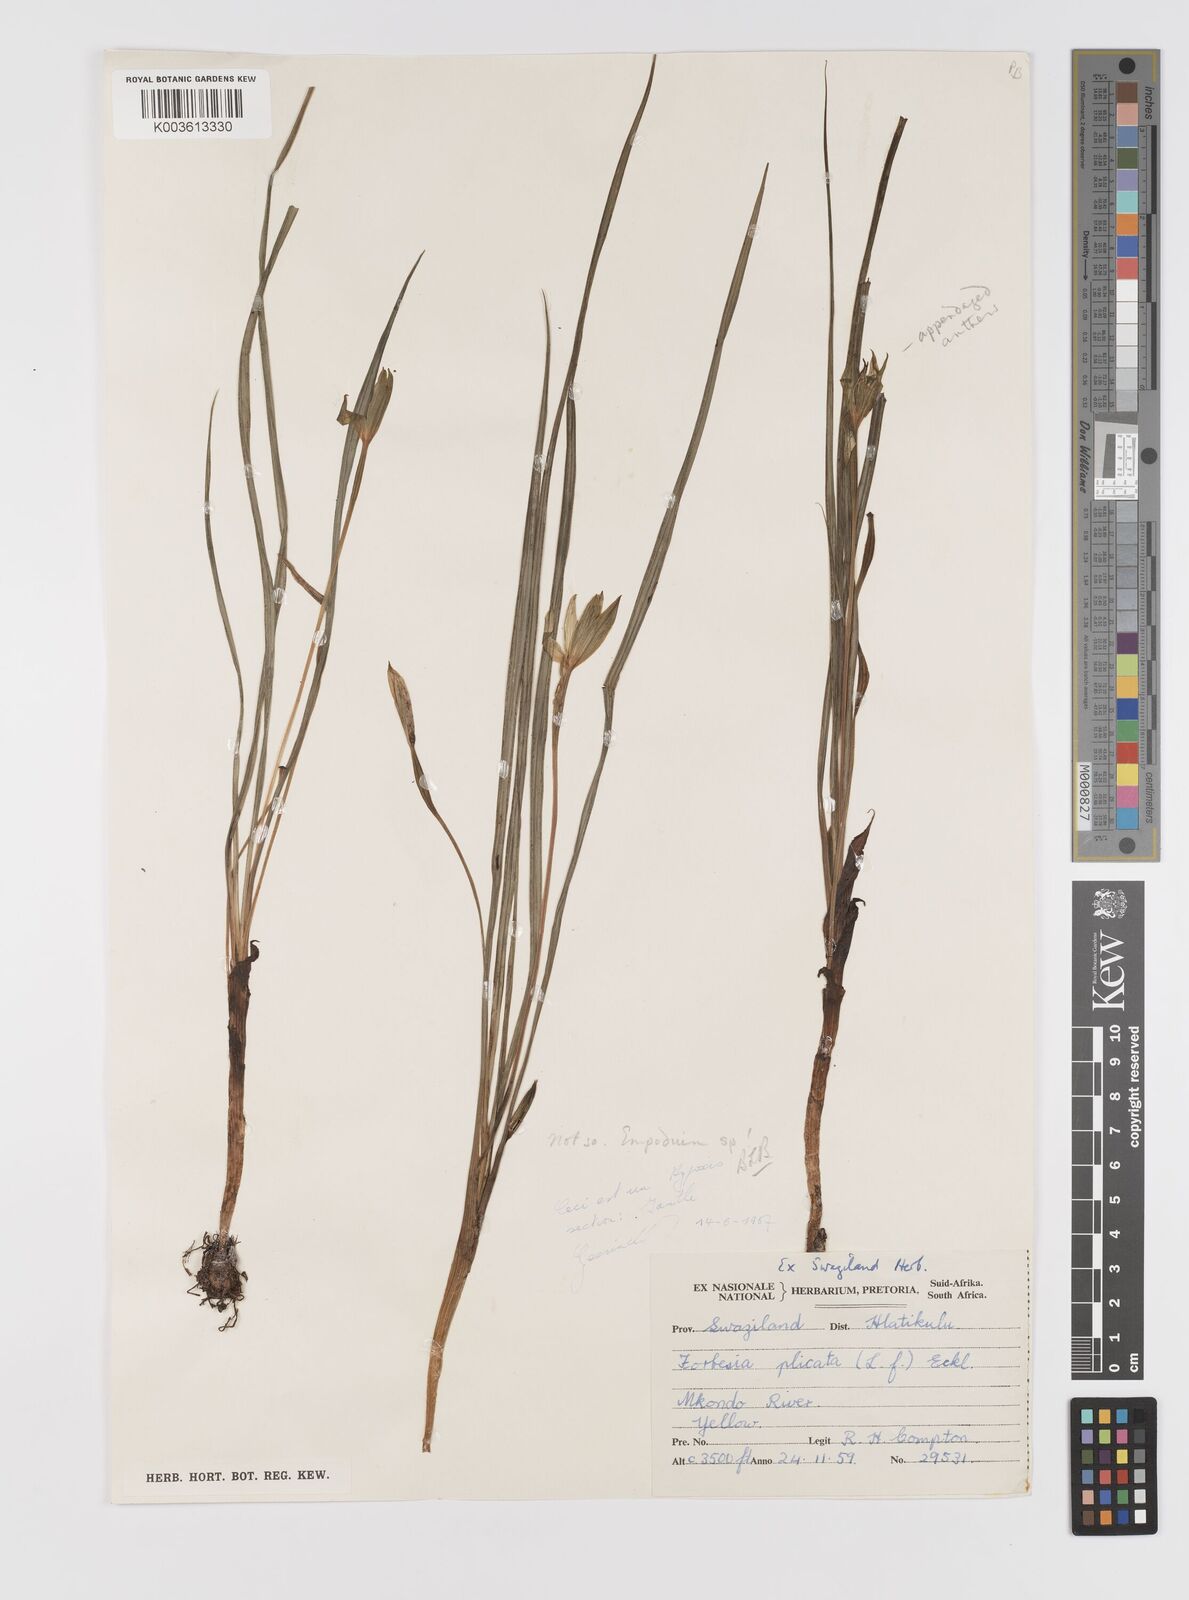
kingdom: Plantae
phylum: Tracheophyta
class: Liliopsida
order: Asparagales
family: Hypoxidaceae
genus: Empodium
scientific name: Empodium elongatum
